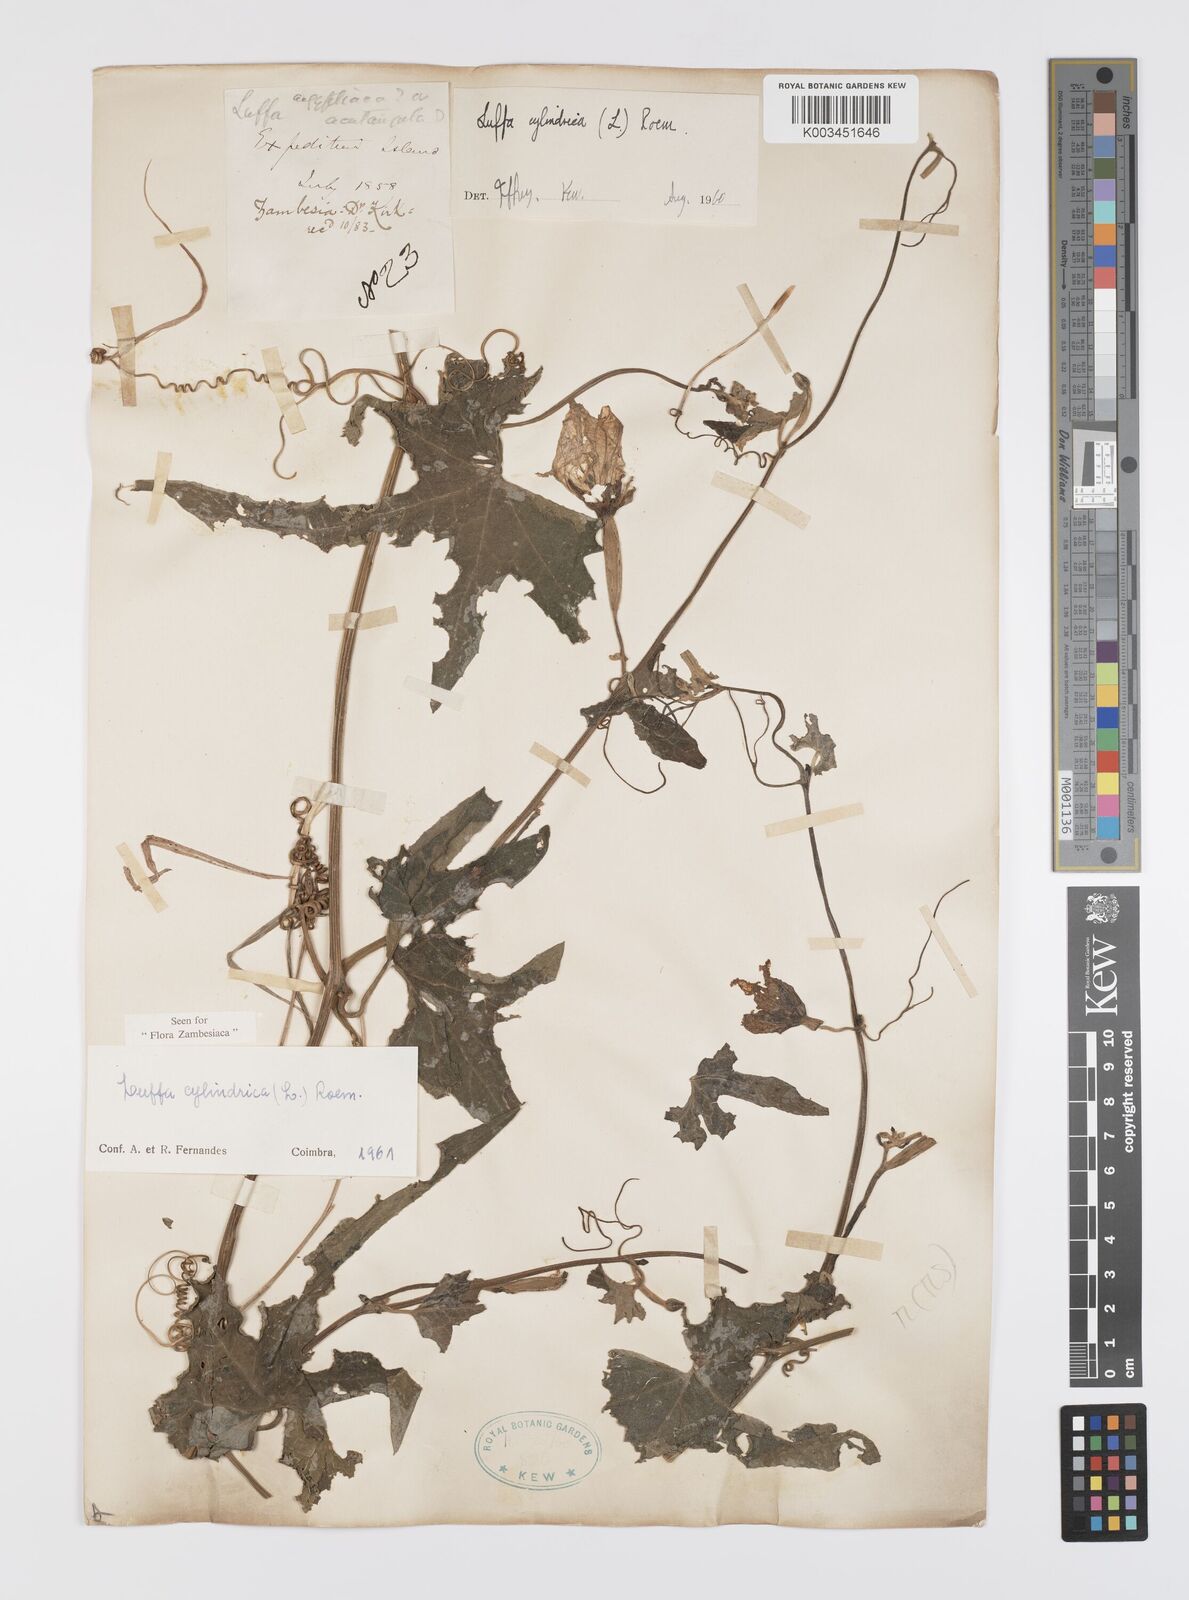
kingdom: Plantae
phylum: Tracheophyta
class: Magnoliopsida
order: Cucurbitales
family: Cucurbitaceae
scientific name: Cucurbitaceae
